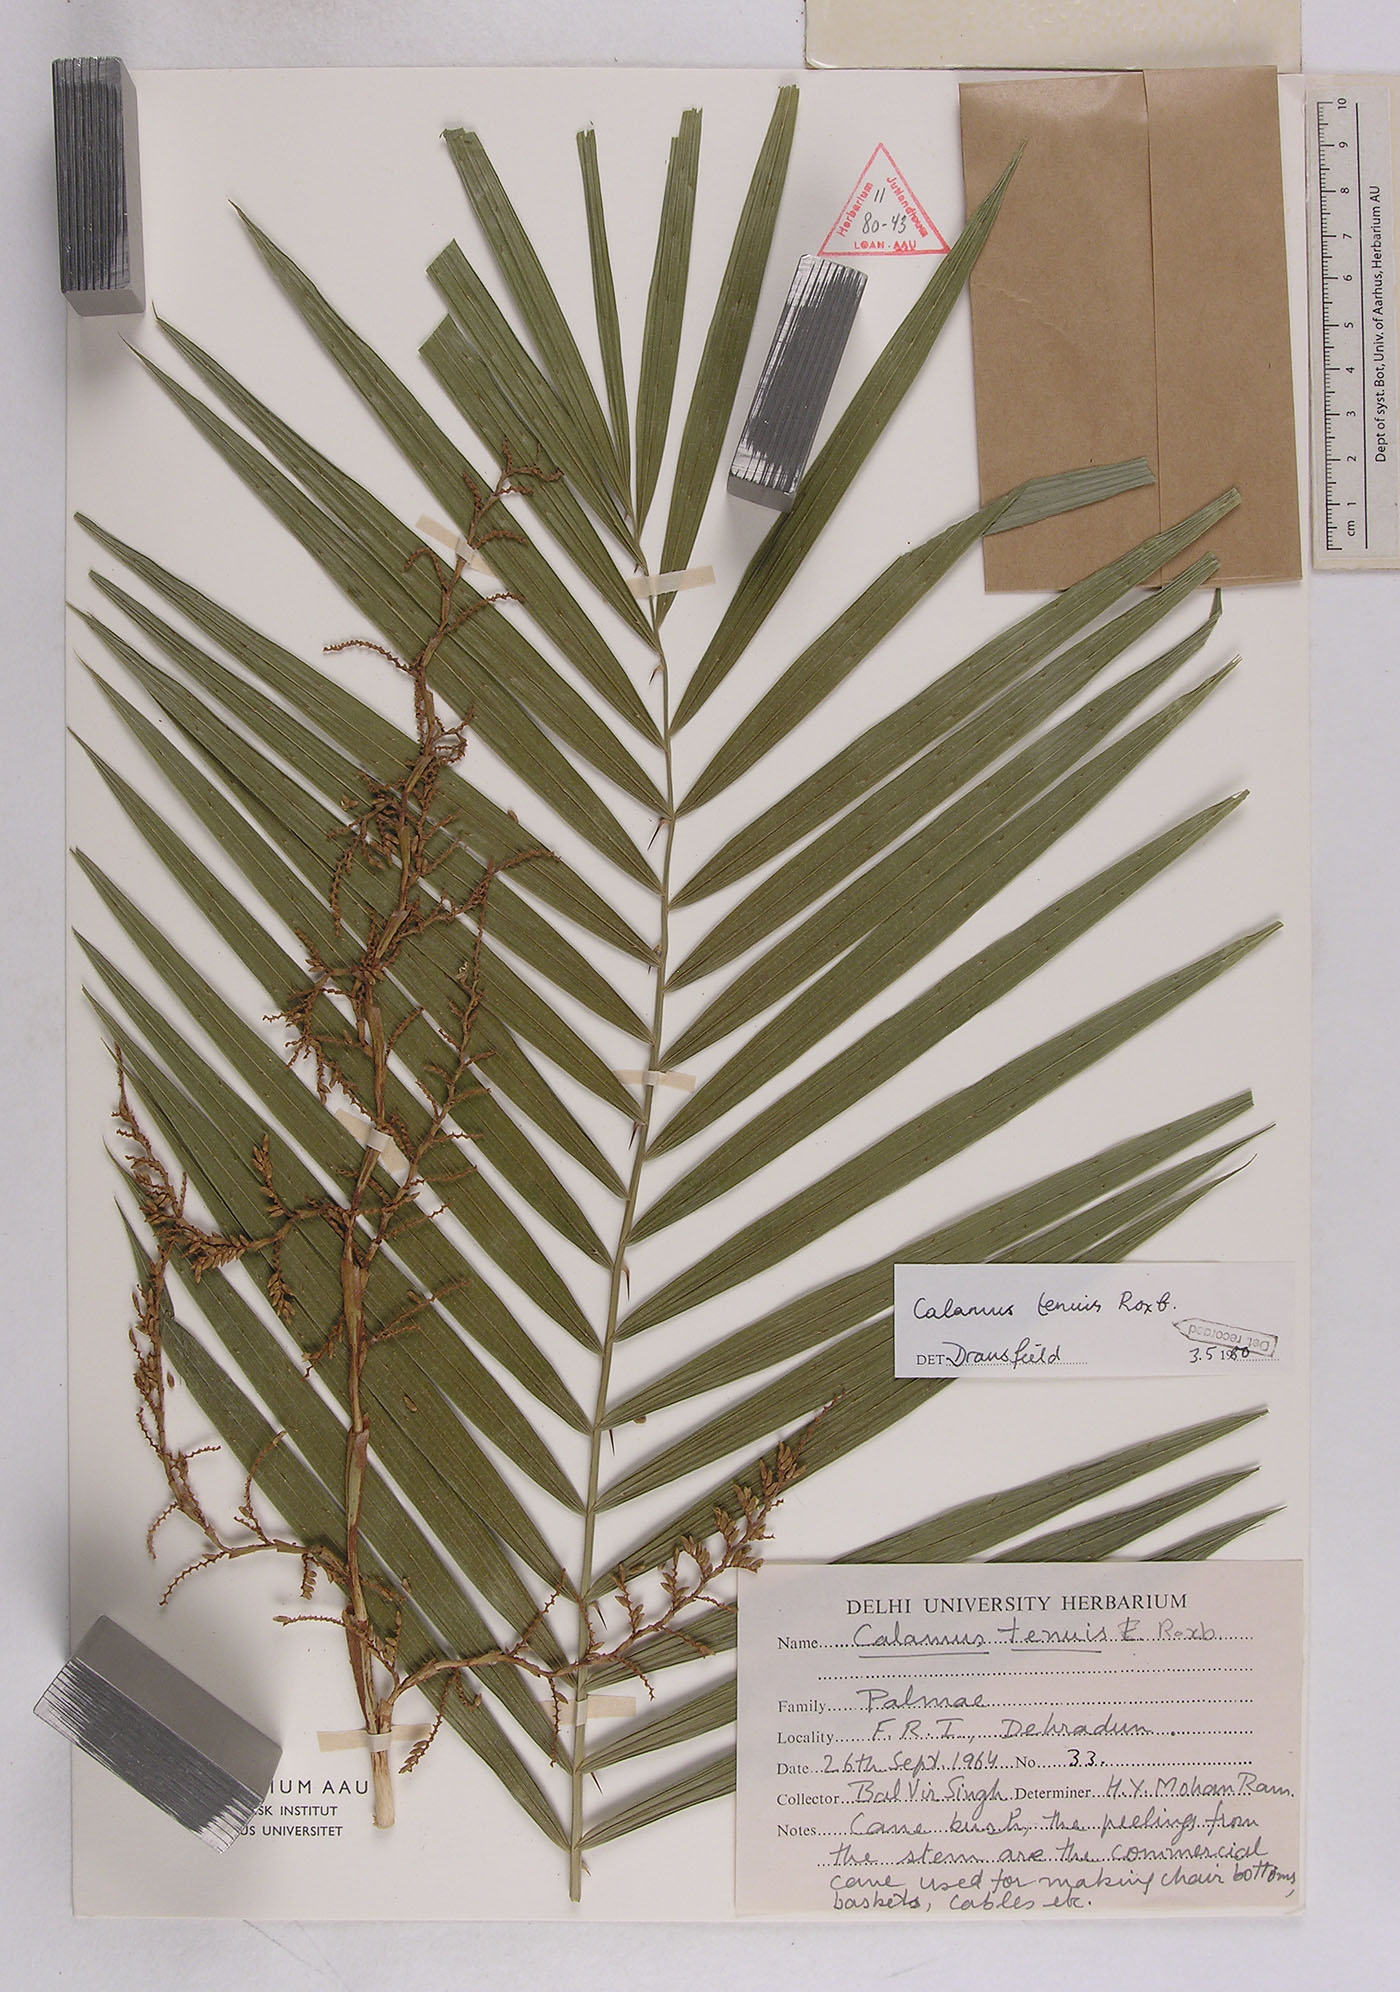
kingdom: Plantae
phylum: Tracheophyta
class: Liliopsida
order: Arecales
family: Arecaceae
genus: Calamus
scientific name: Calamus tenuis
